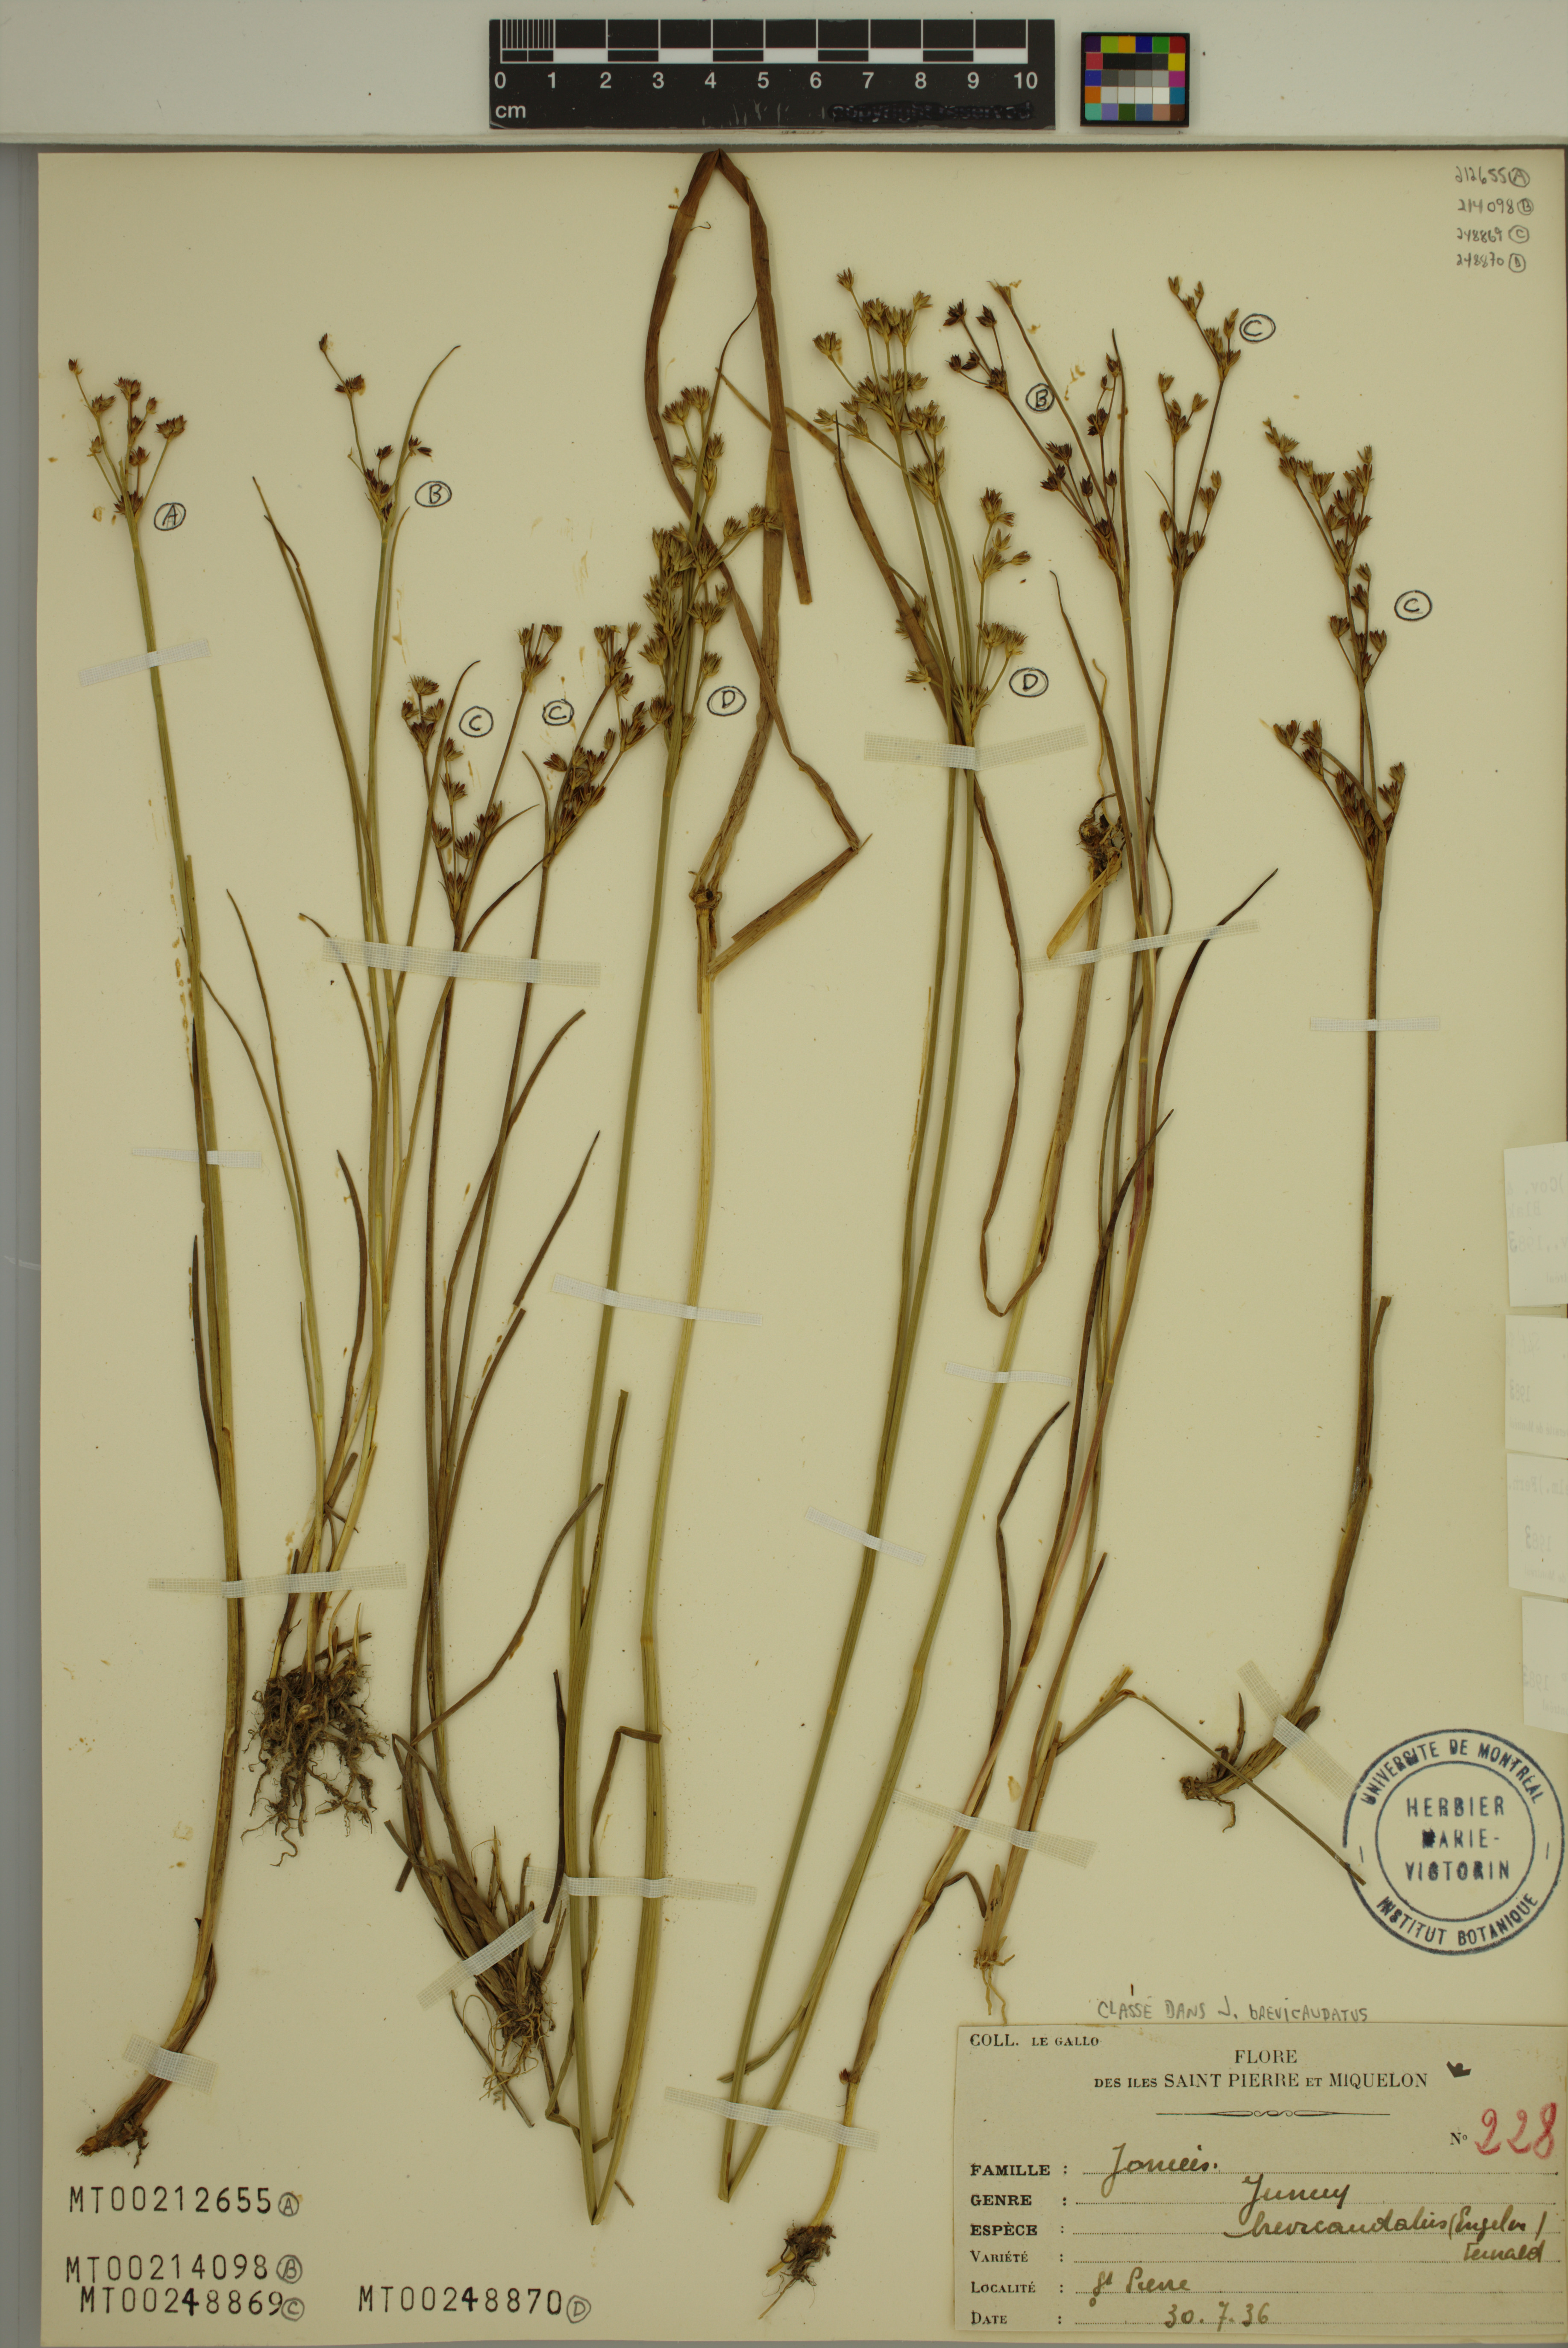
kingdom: Plantae
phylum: Tracheophyta
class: Liliopsida
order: Poales
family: Juncaceae
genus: Juncus
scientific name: Juncus brevicaudatus
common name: Narrow-panicle rush
